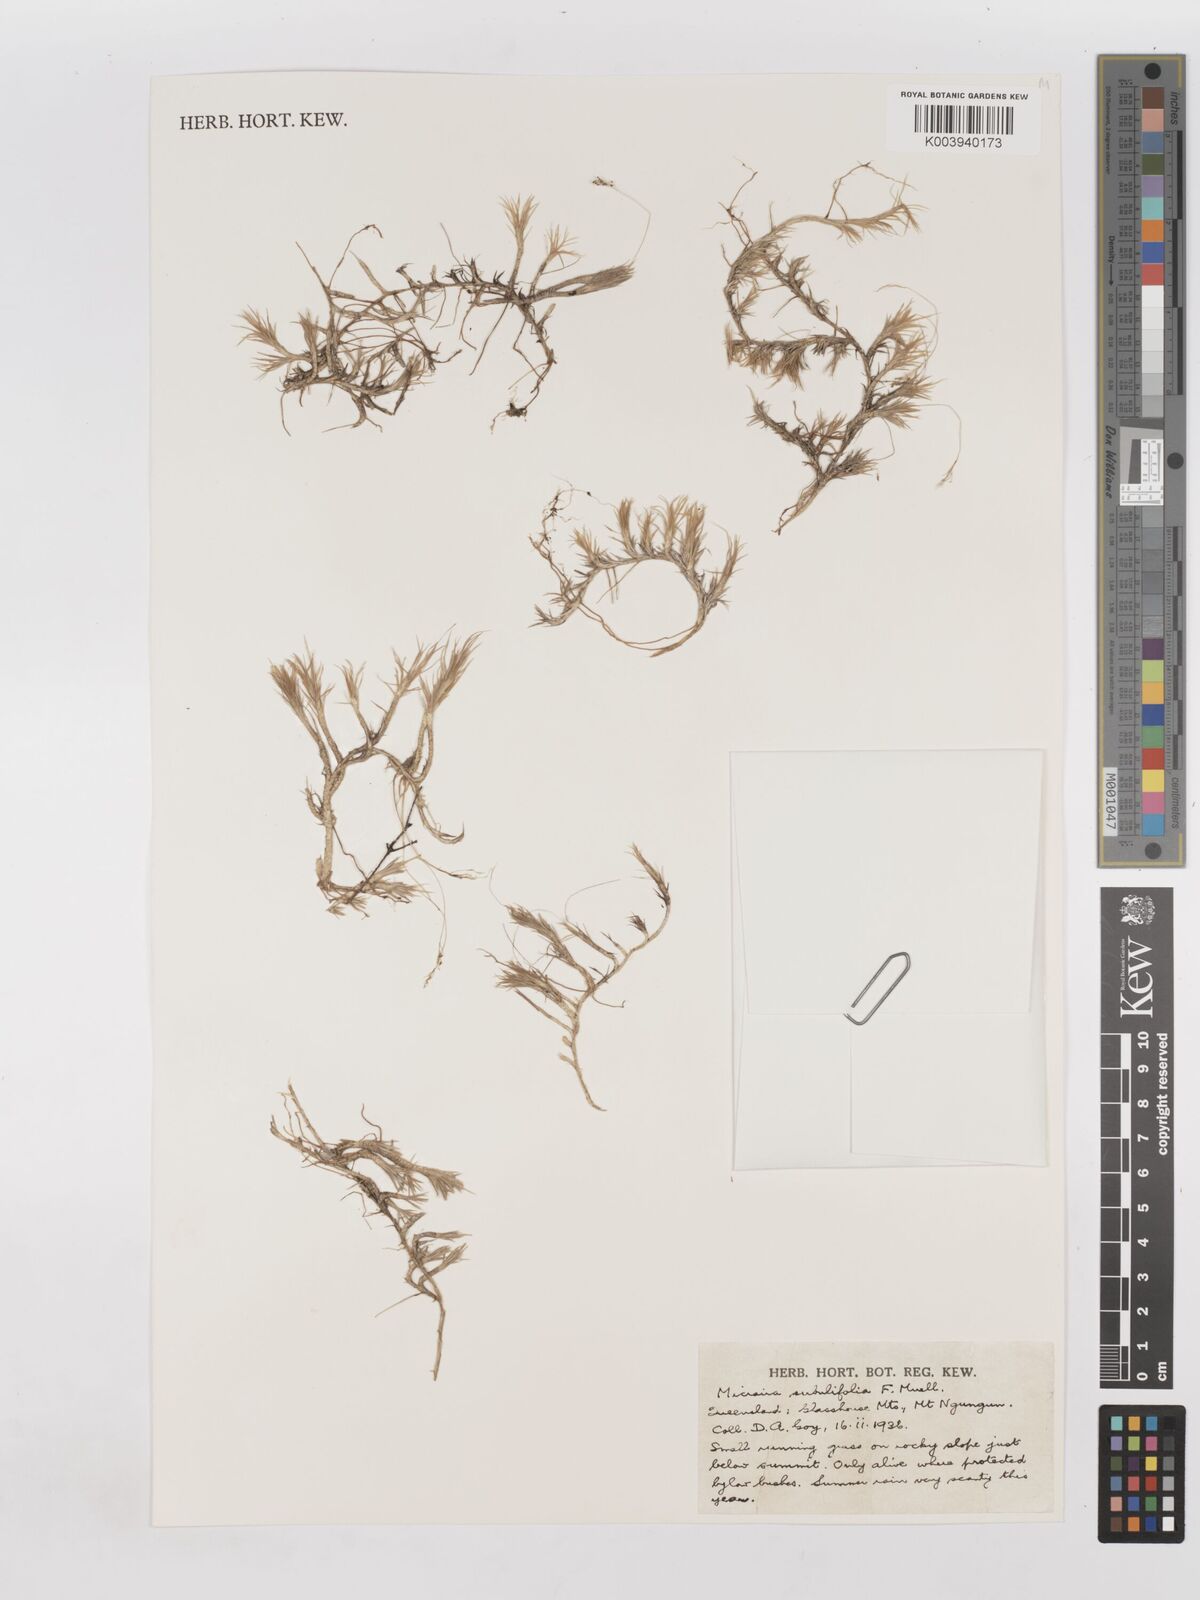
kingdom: Plantae
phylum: Tracheophyta
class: Liliopsida
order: Poales
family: Poaceae
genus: Micraira
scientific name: Micraira subulifolia
